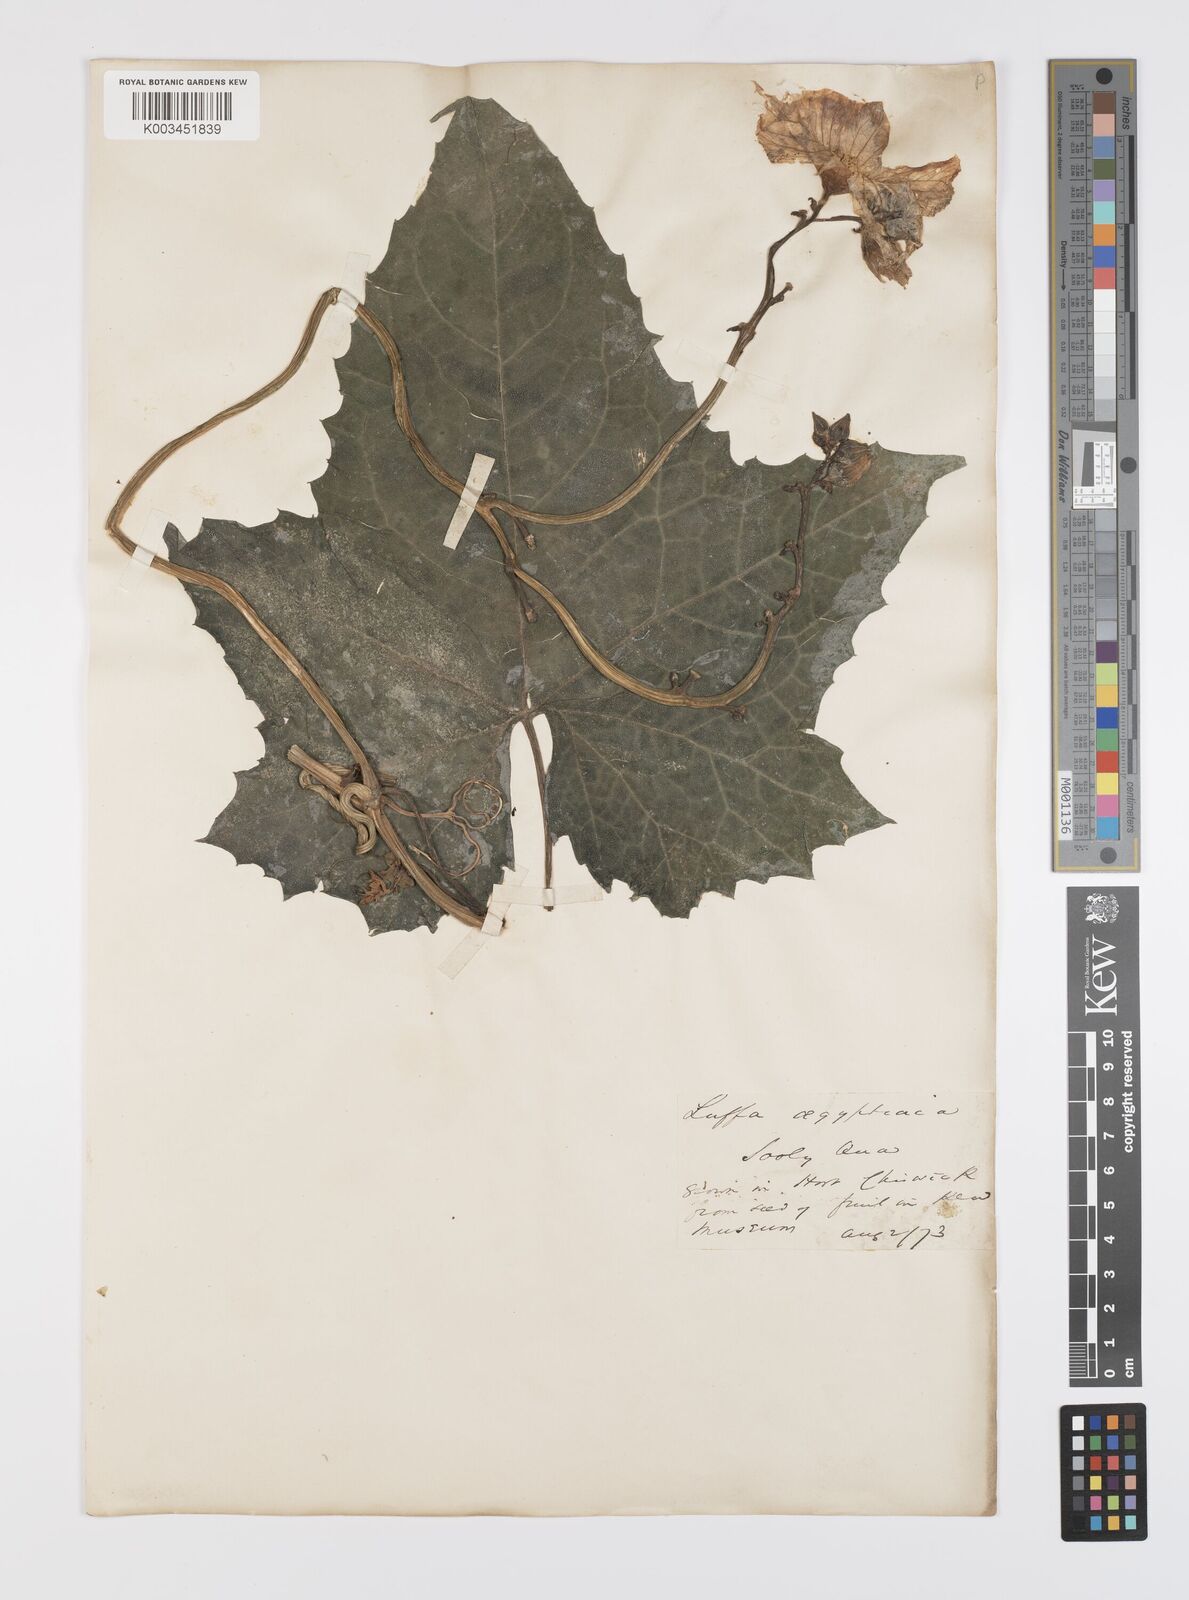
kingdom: Plantae
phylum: Tracheophyta
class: Magnoliopsida
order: Cucurbitales
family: Cucurbitaceae
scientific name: Cucurbitaceae
